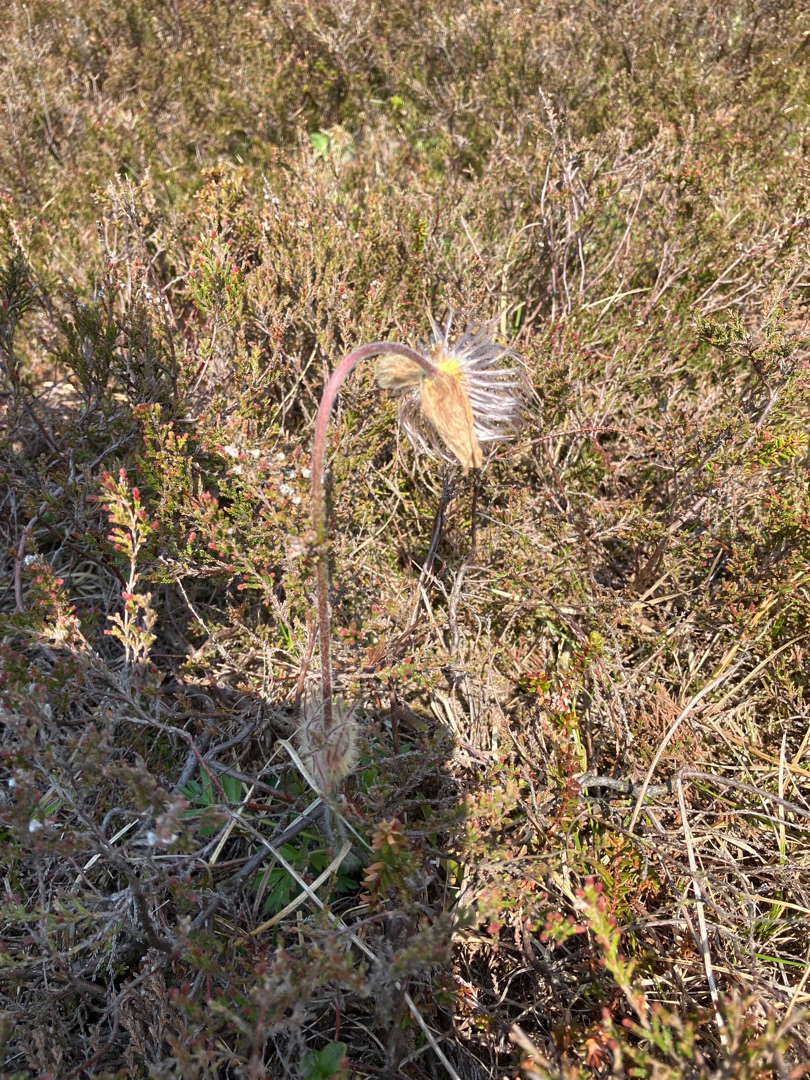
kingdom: Plantae
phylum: Tracheophyta
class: Magnoliopsida
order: Ranunculales
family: Ranunculaceae
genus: Pulsatilla
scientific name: Pulsatilla vernalis
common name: Vår-kobjælde
